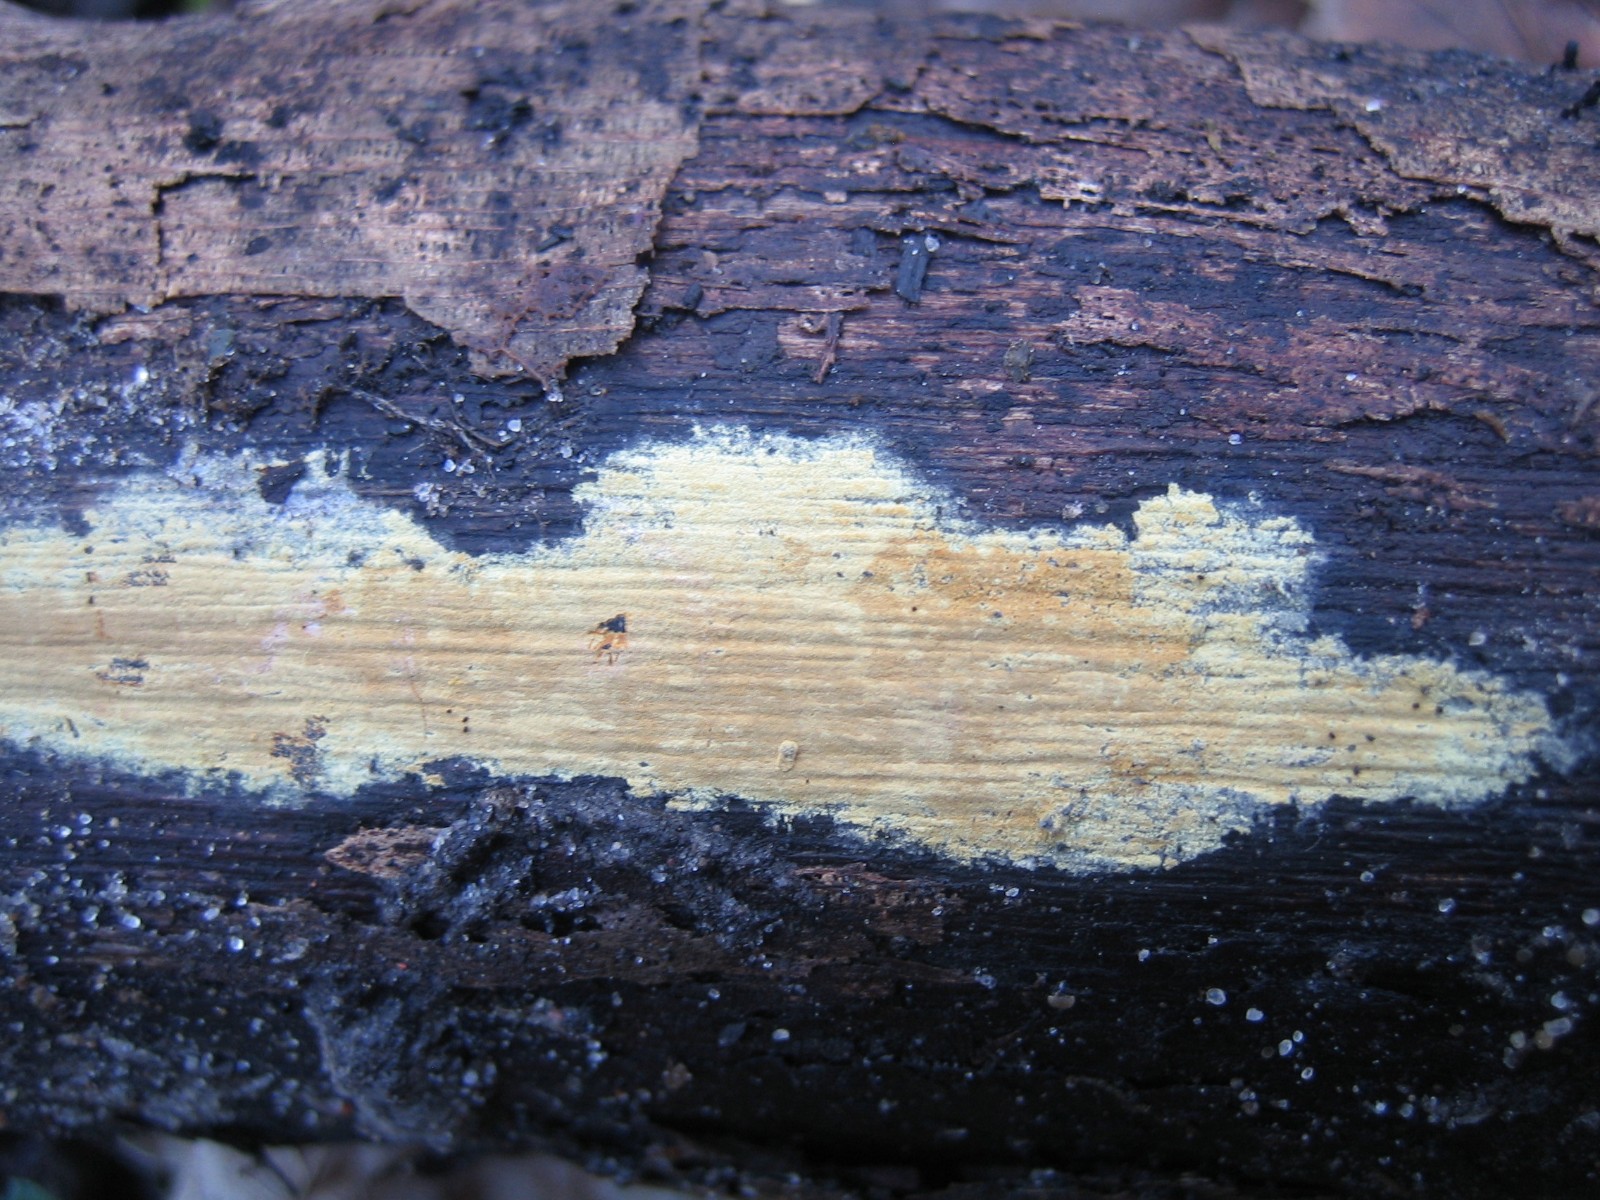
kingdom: Fungi
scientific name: Fungi
